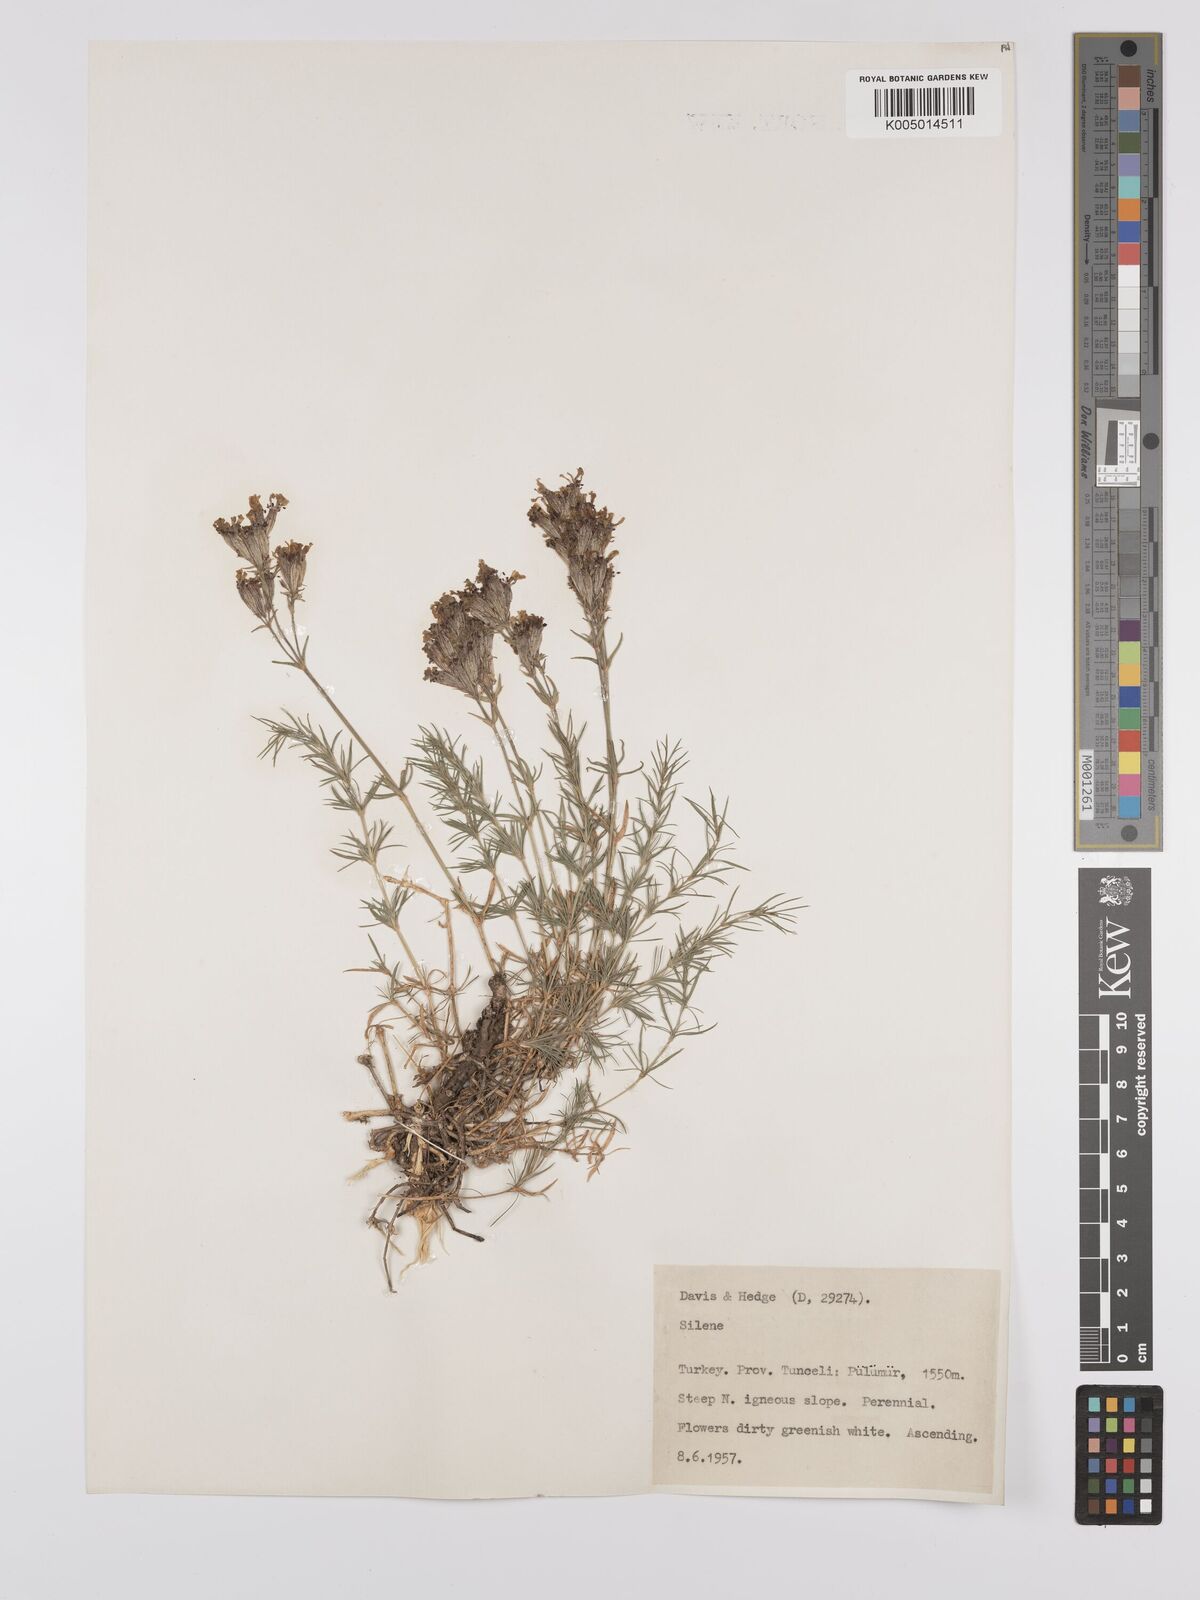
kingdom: Plantae
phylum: Tracheophyta
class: Magnoliopsida
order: Caryophyllales
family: Caryophyllaceae
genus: Silene
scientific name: Silene
